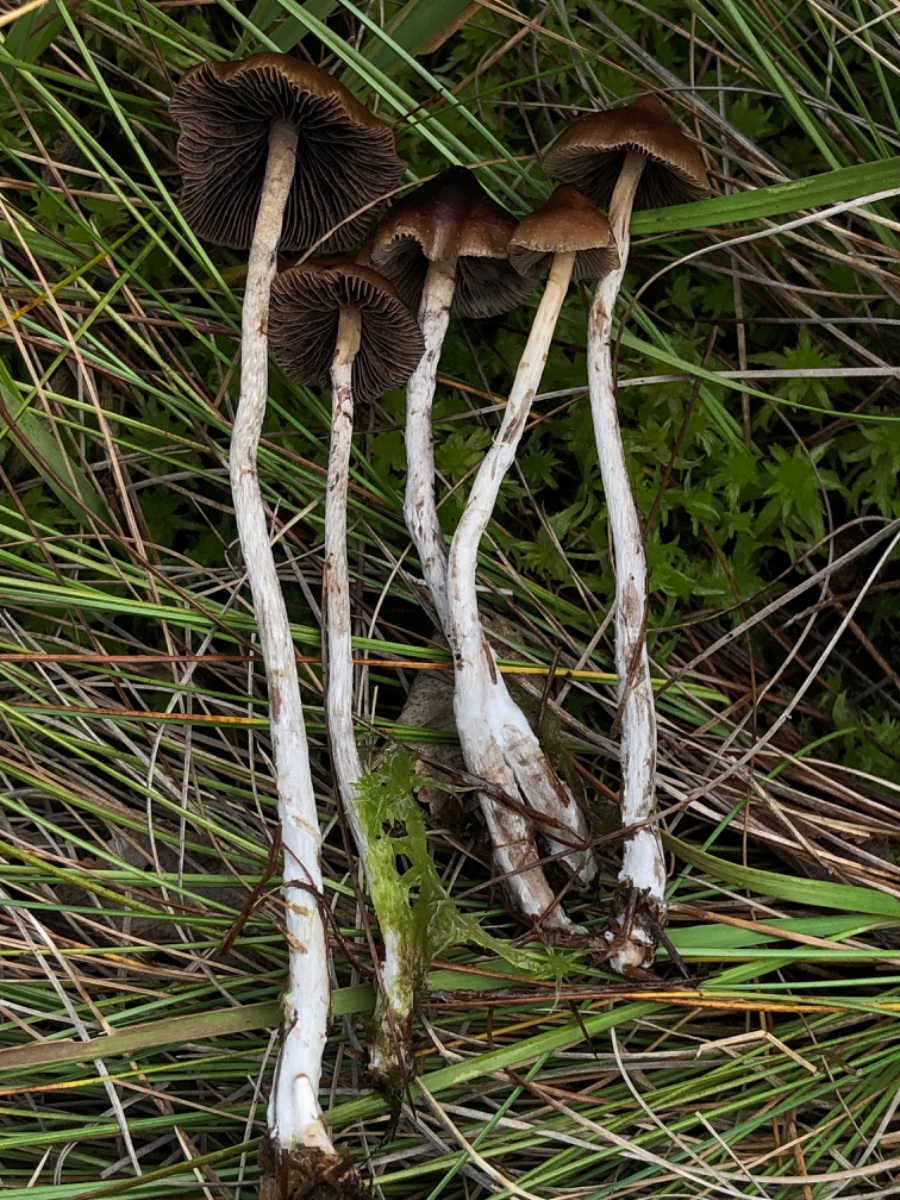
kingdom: Fungi
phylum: Basidiomycota
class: Agaricomycetes
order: Agaricales
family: Strophariaceae
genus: Hypholoma
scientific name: Hypholoma marginatum
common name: enlig svovlhat
